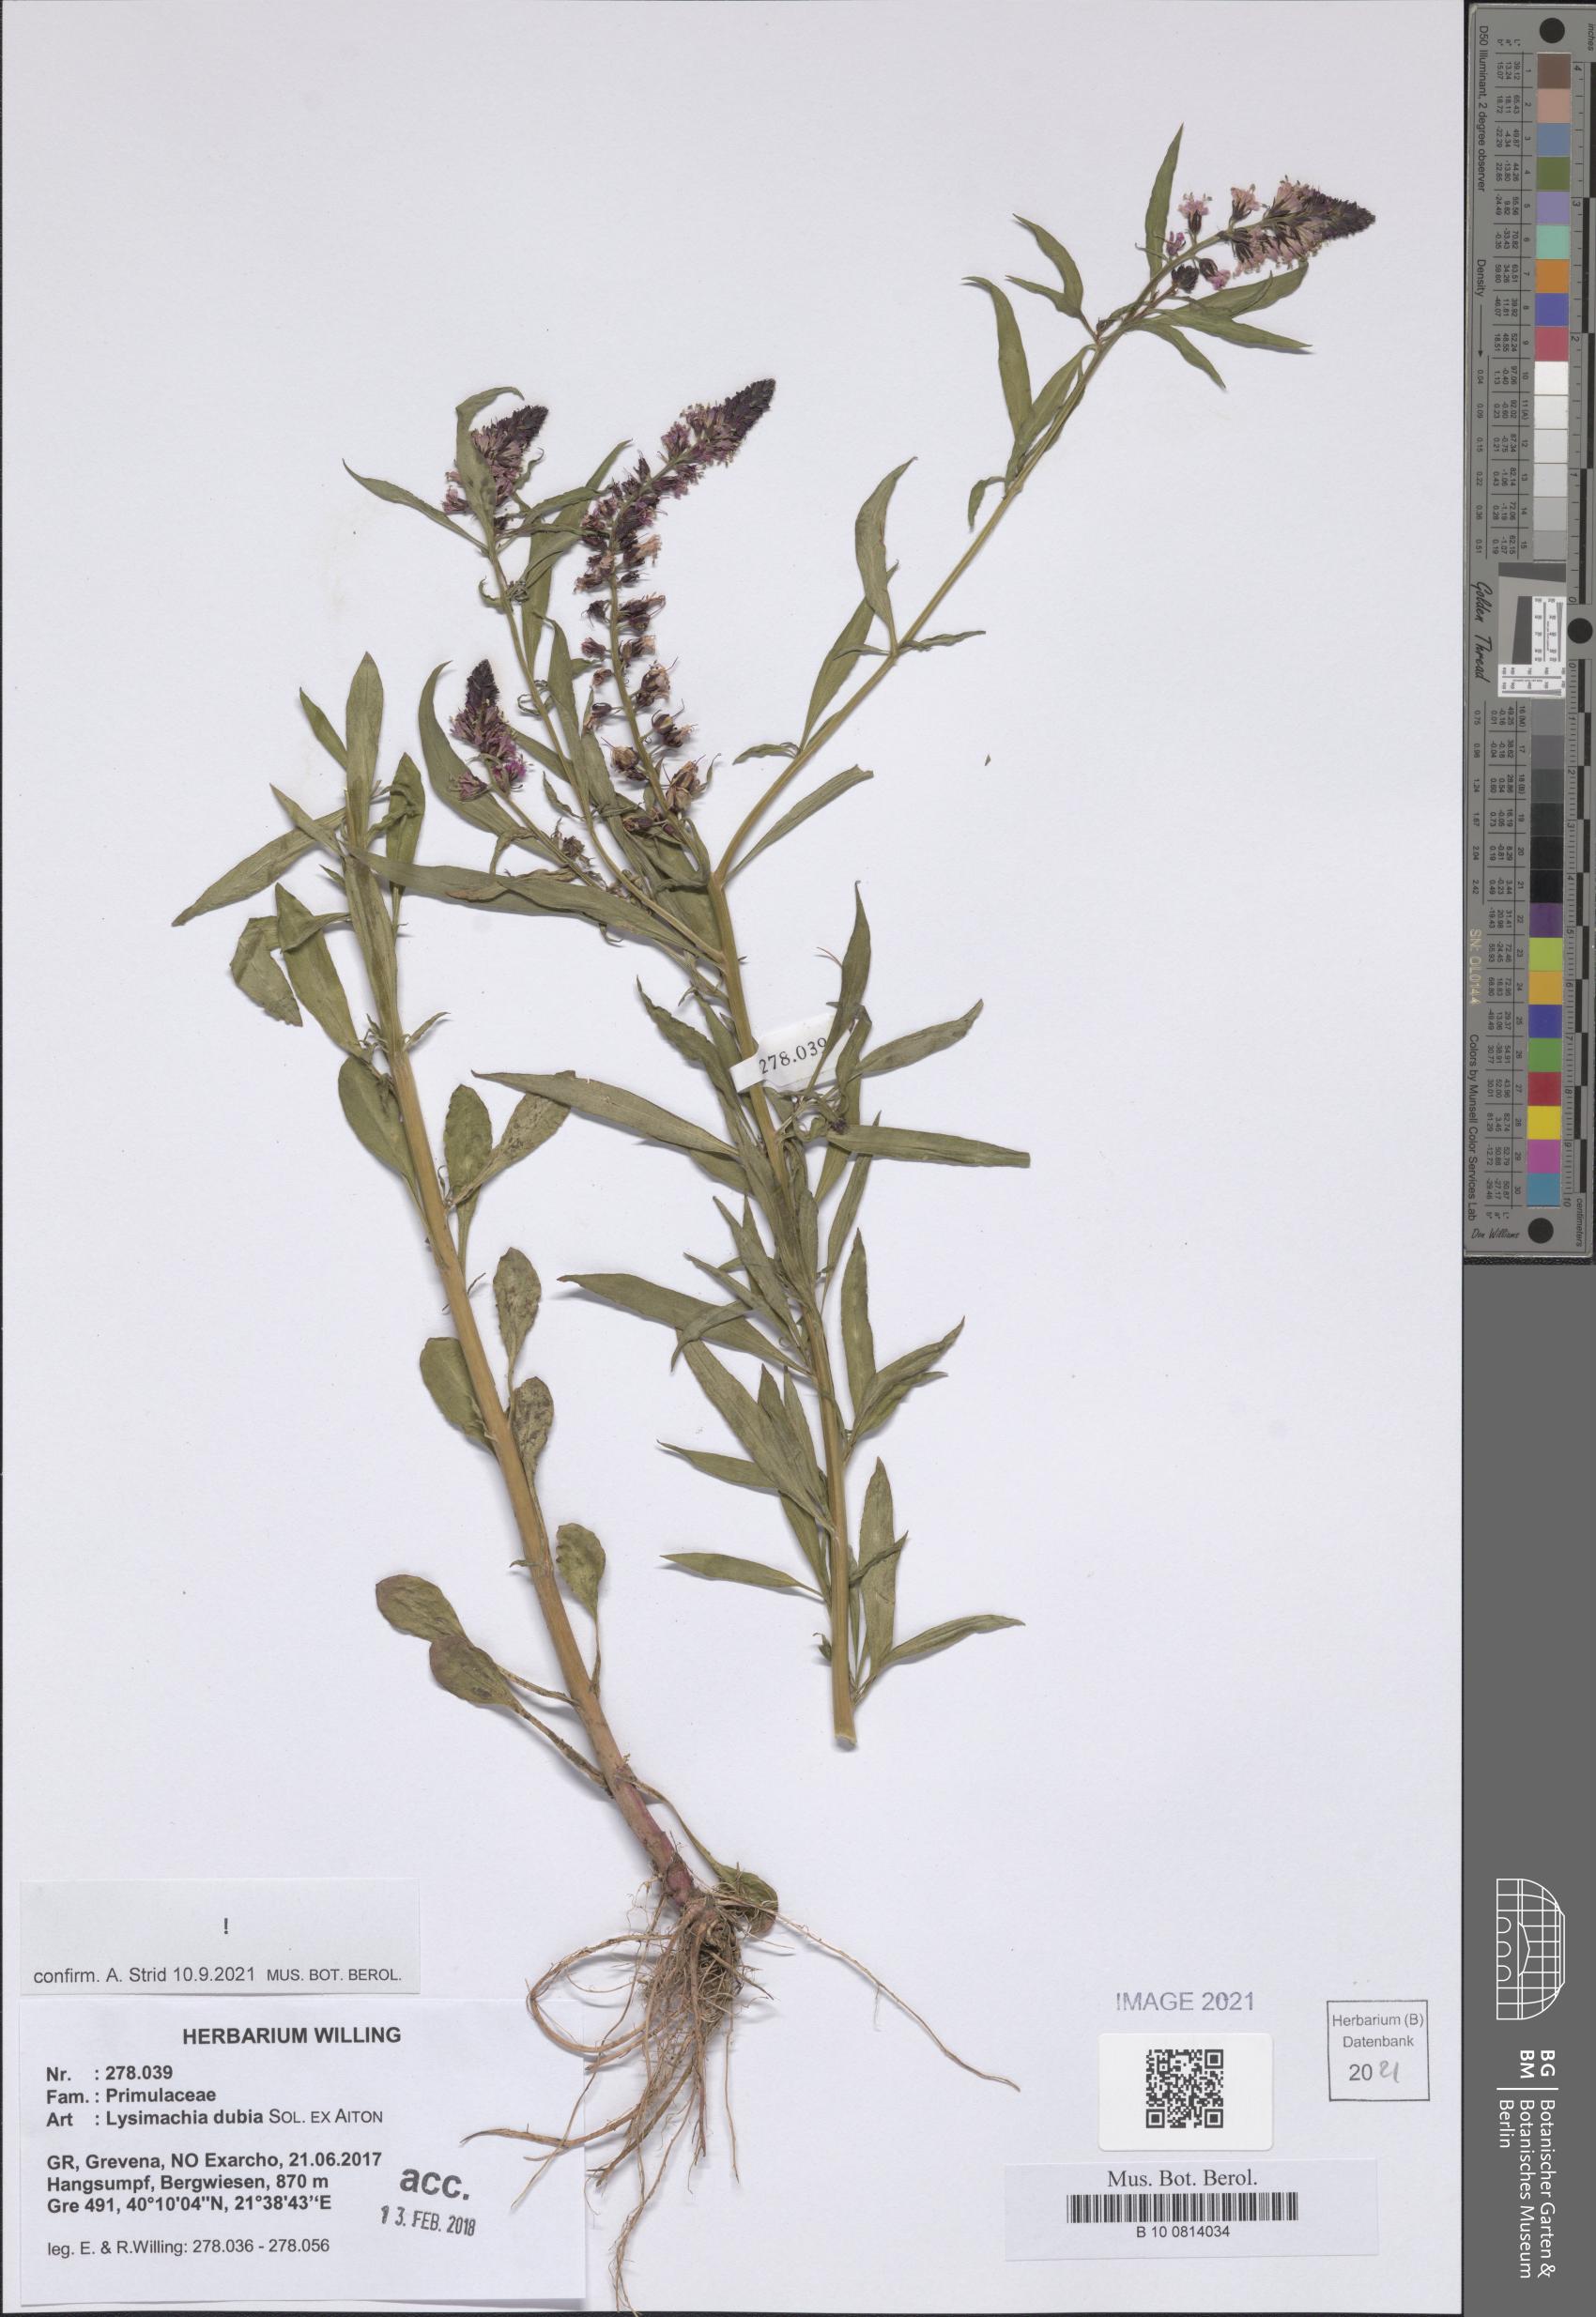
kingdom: Plantae
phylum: Tracheophyta
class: Magnoliopsida
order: Ericales
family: Primulaceae
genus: Lysimachia
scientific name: Lysimachia lanceolata
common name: Lance-leaved loosestrife
